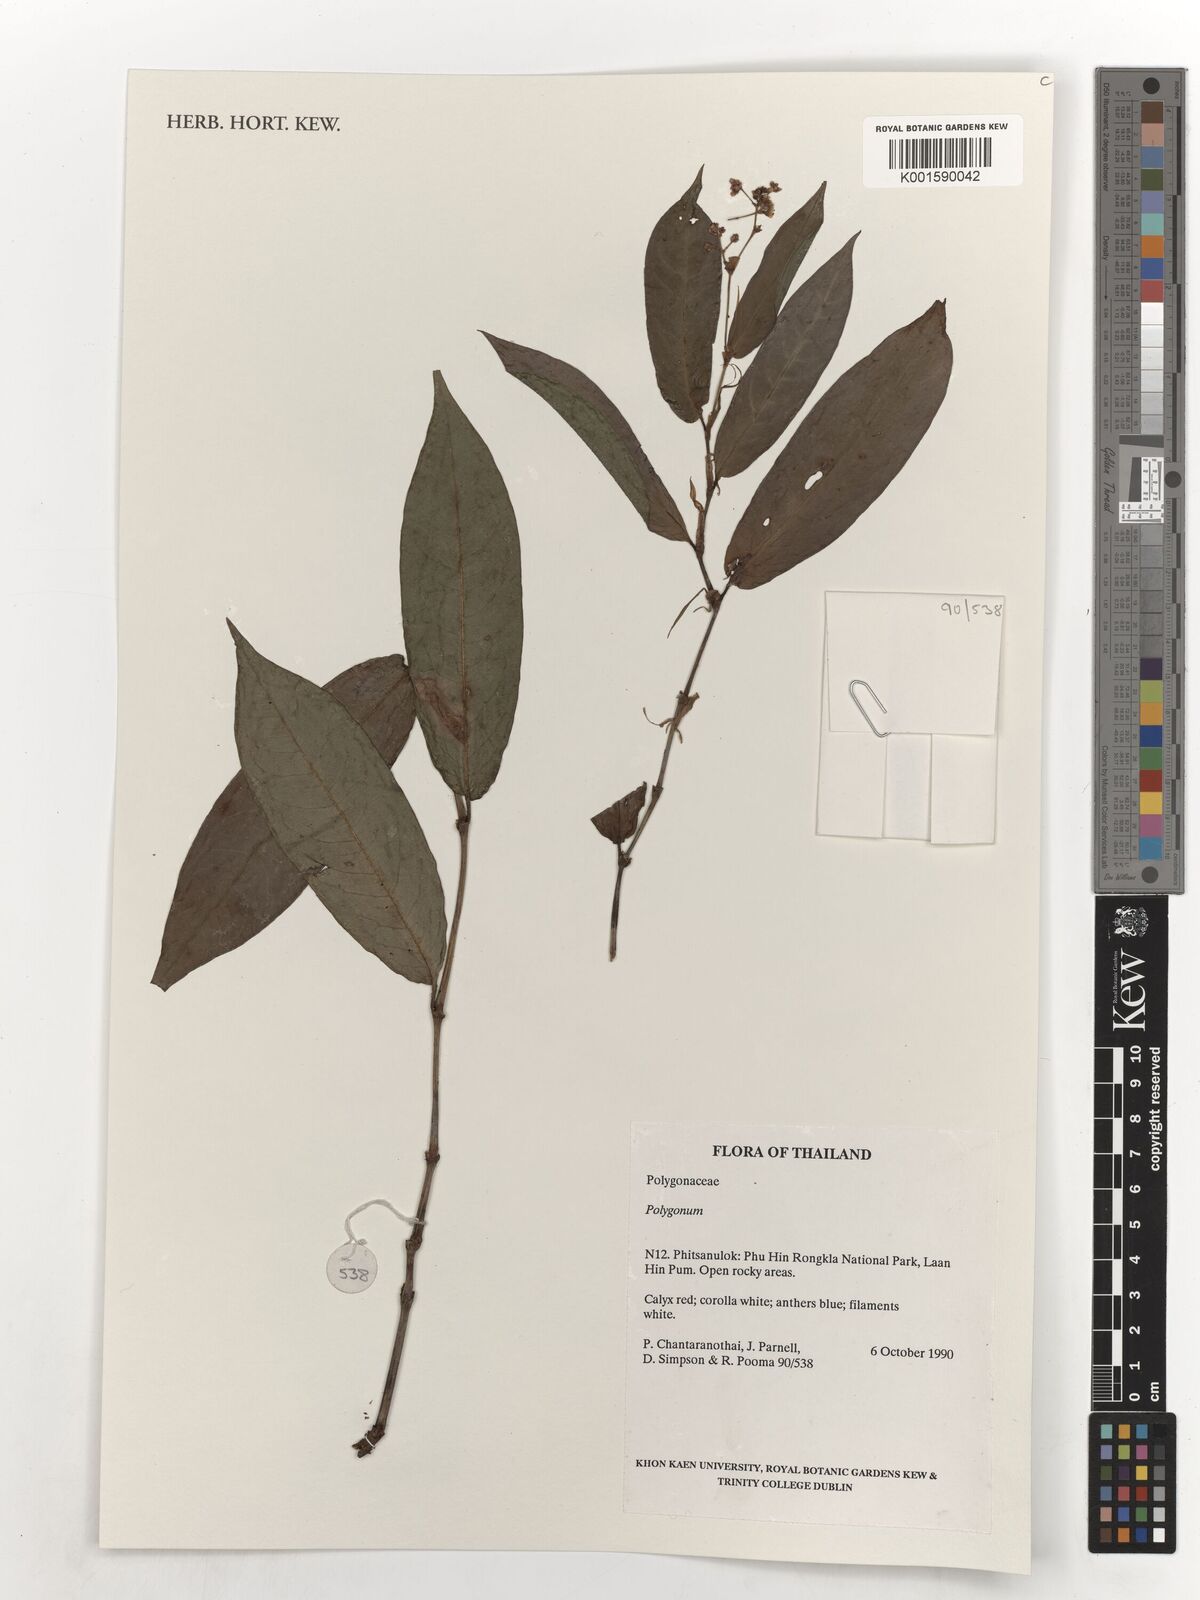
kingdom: Plantae
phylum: Tracheophyta
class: Magnoliopsida
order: Caryophyllales
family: Polygonaceae
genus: Polygonum
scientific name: Polygonum
